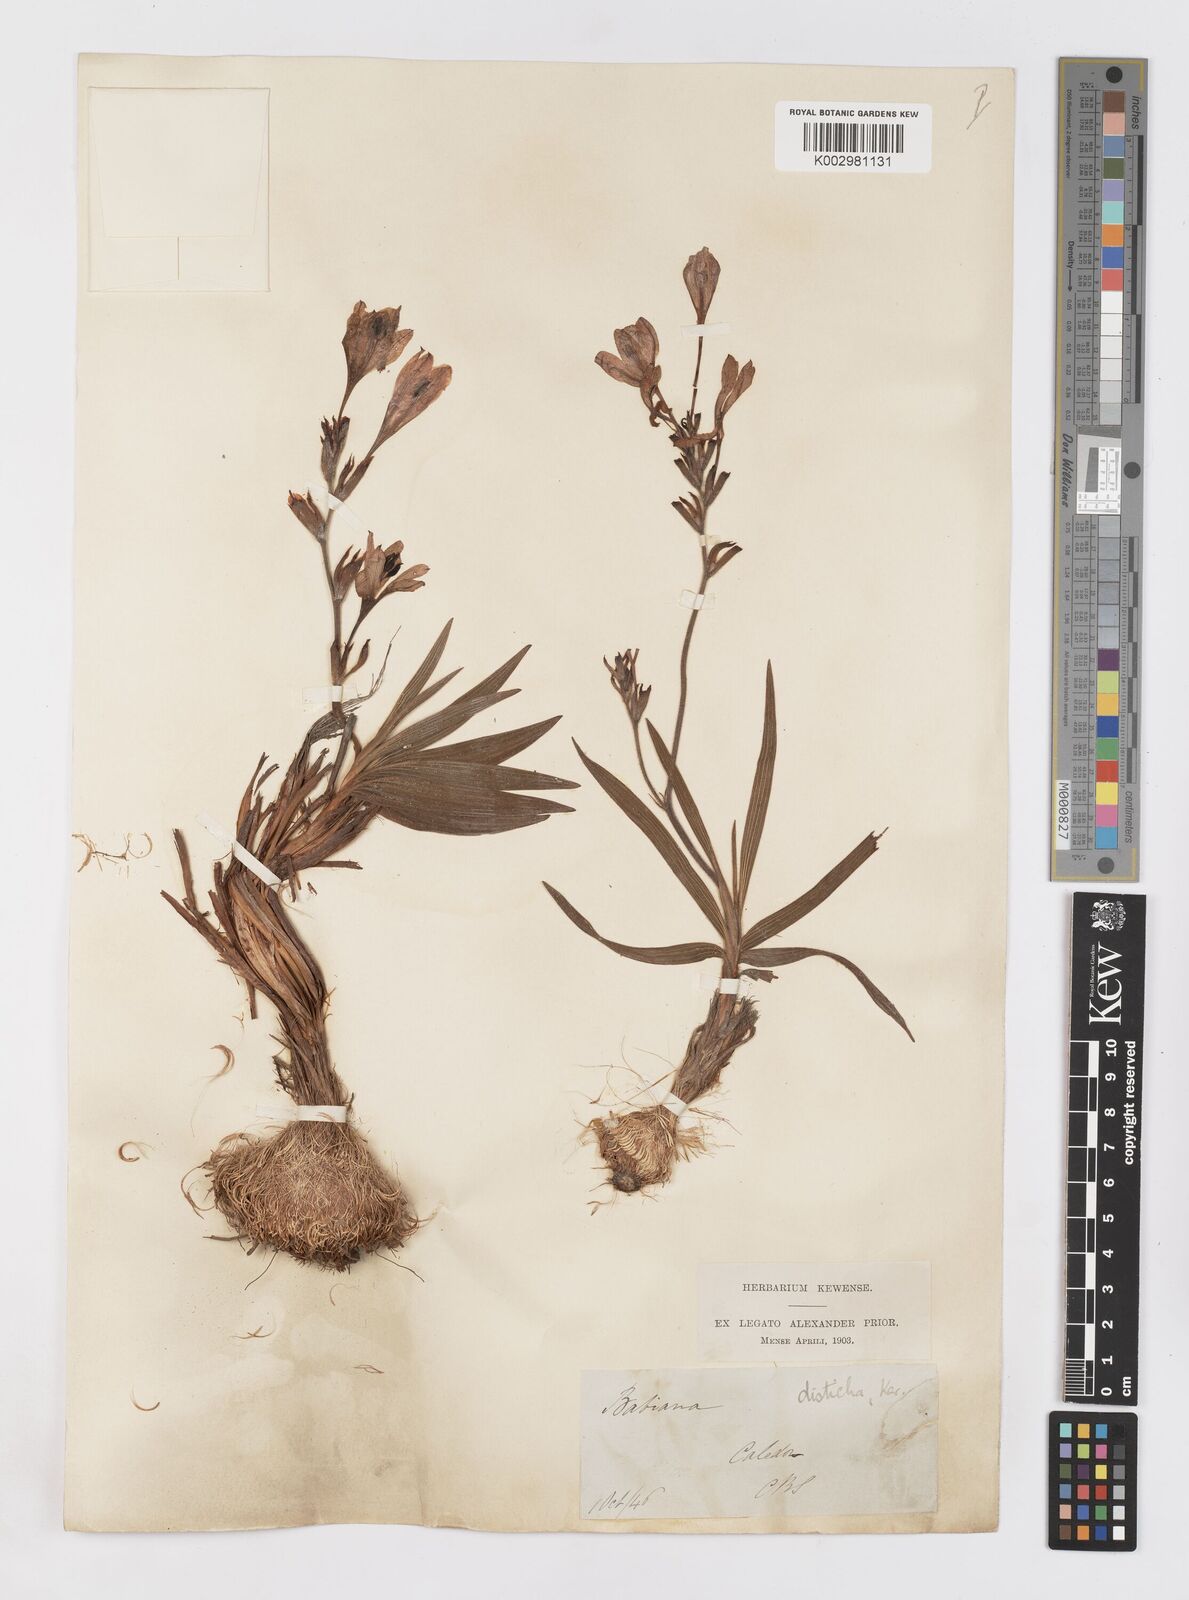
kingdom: Plantae
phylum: Tracheophyta
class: Liliopsida
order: Asparagales
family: Iridaceae
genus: Babiana
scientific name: Babiana
